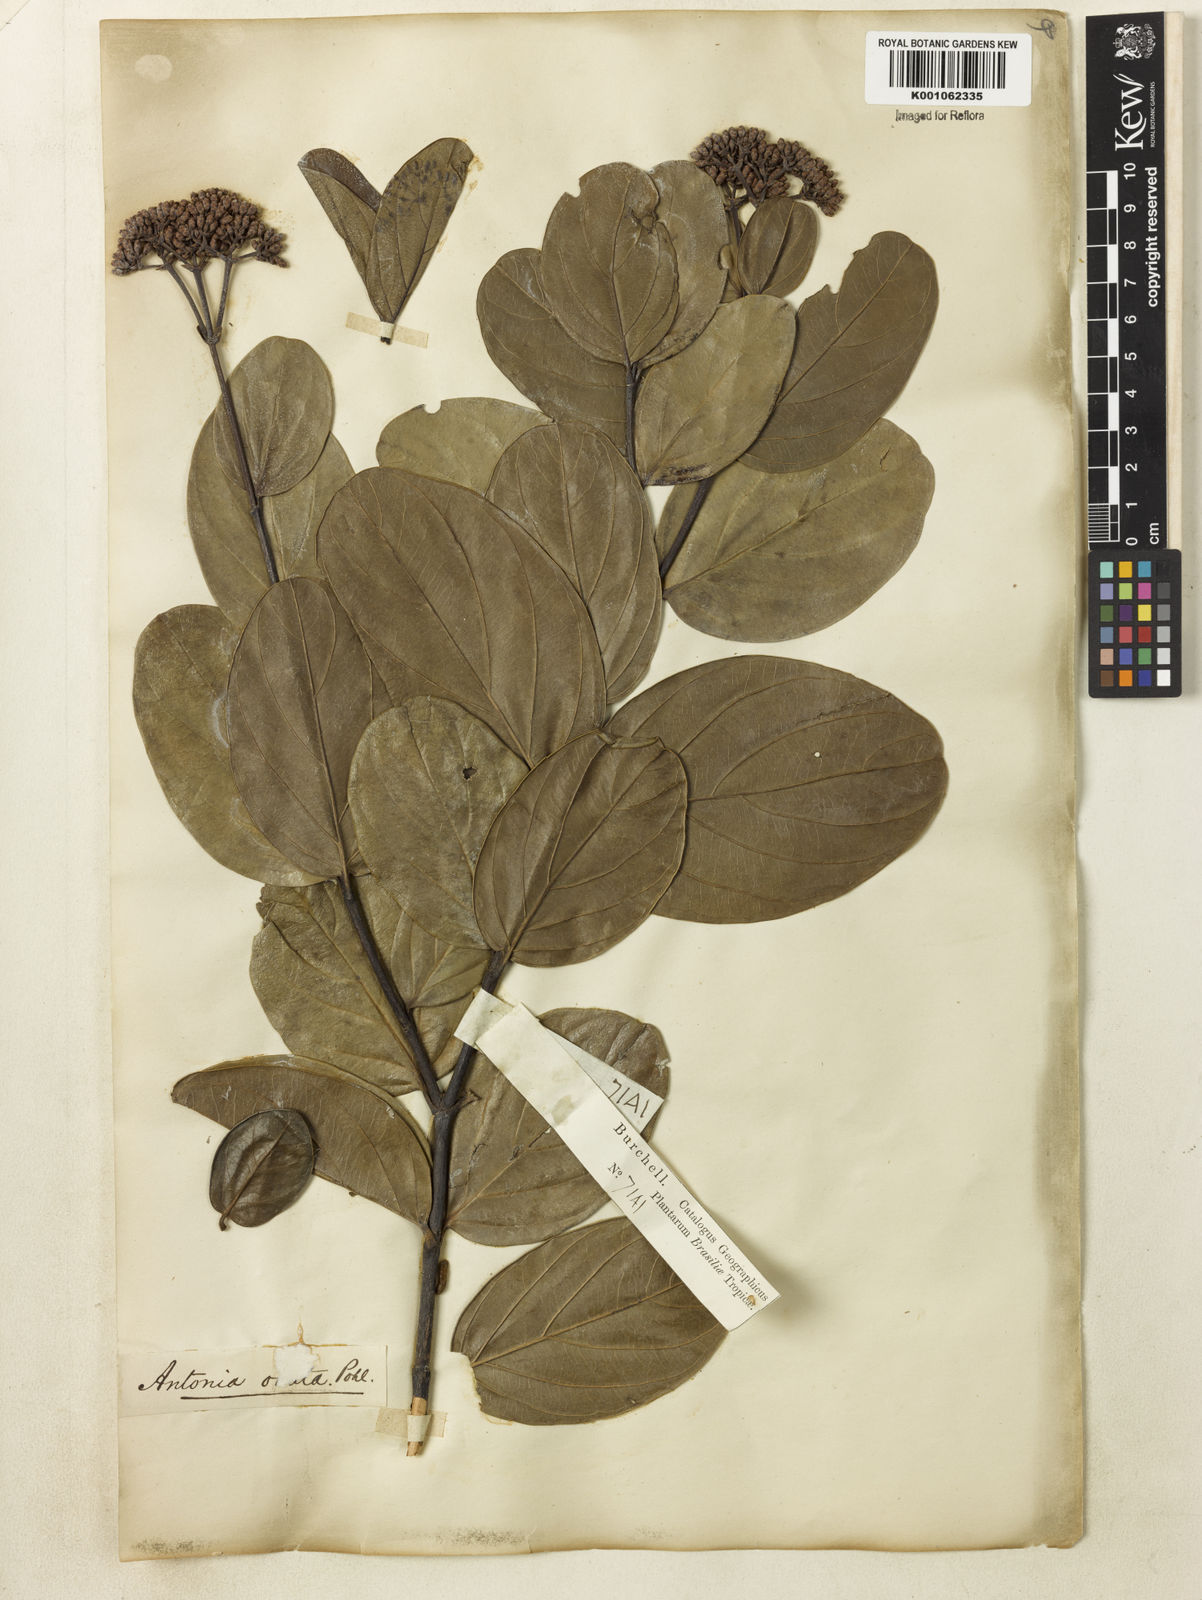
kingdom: Plantae
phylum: Tracheophyta
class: Magnoliopsida
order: Gentianales
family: Loganiaceae
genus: Antonia
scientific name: Antonia ovata
